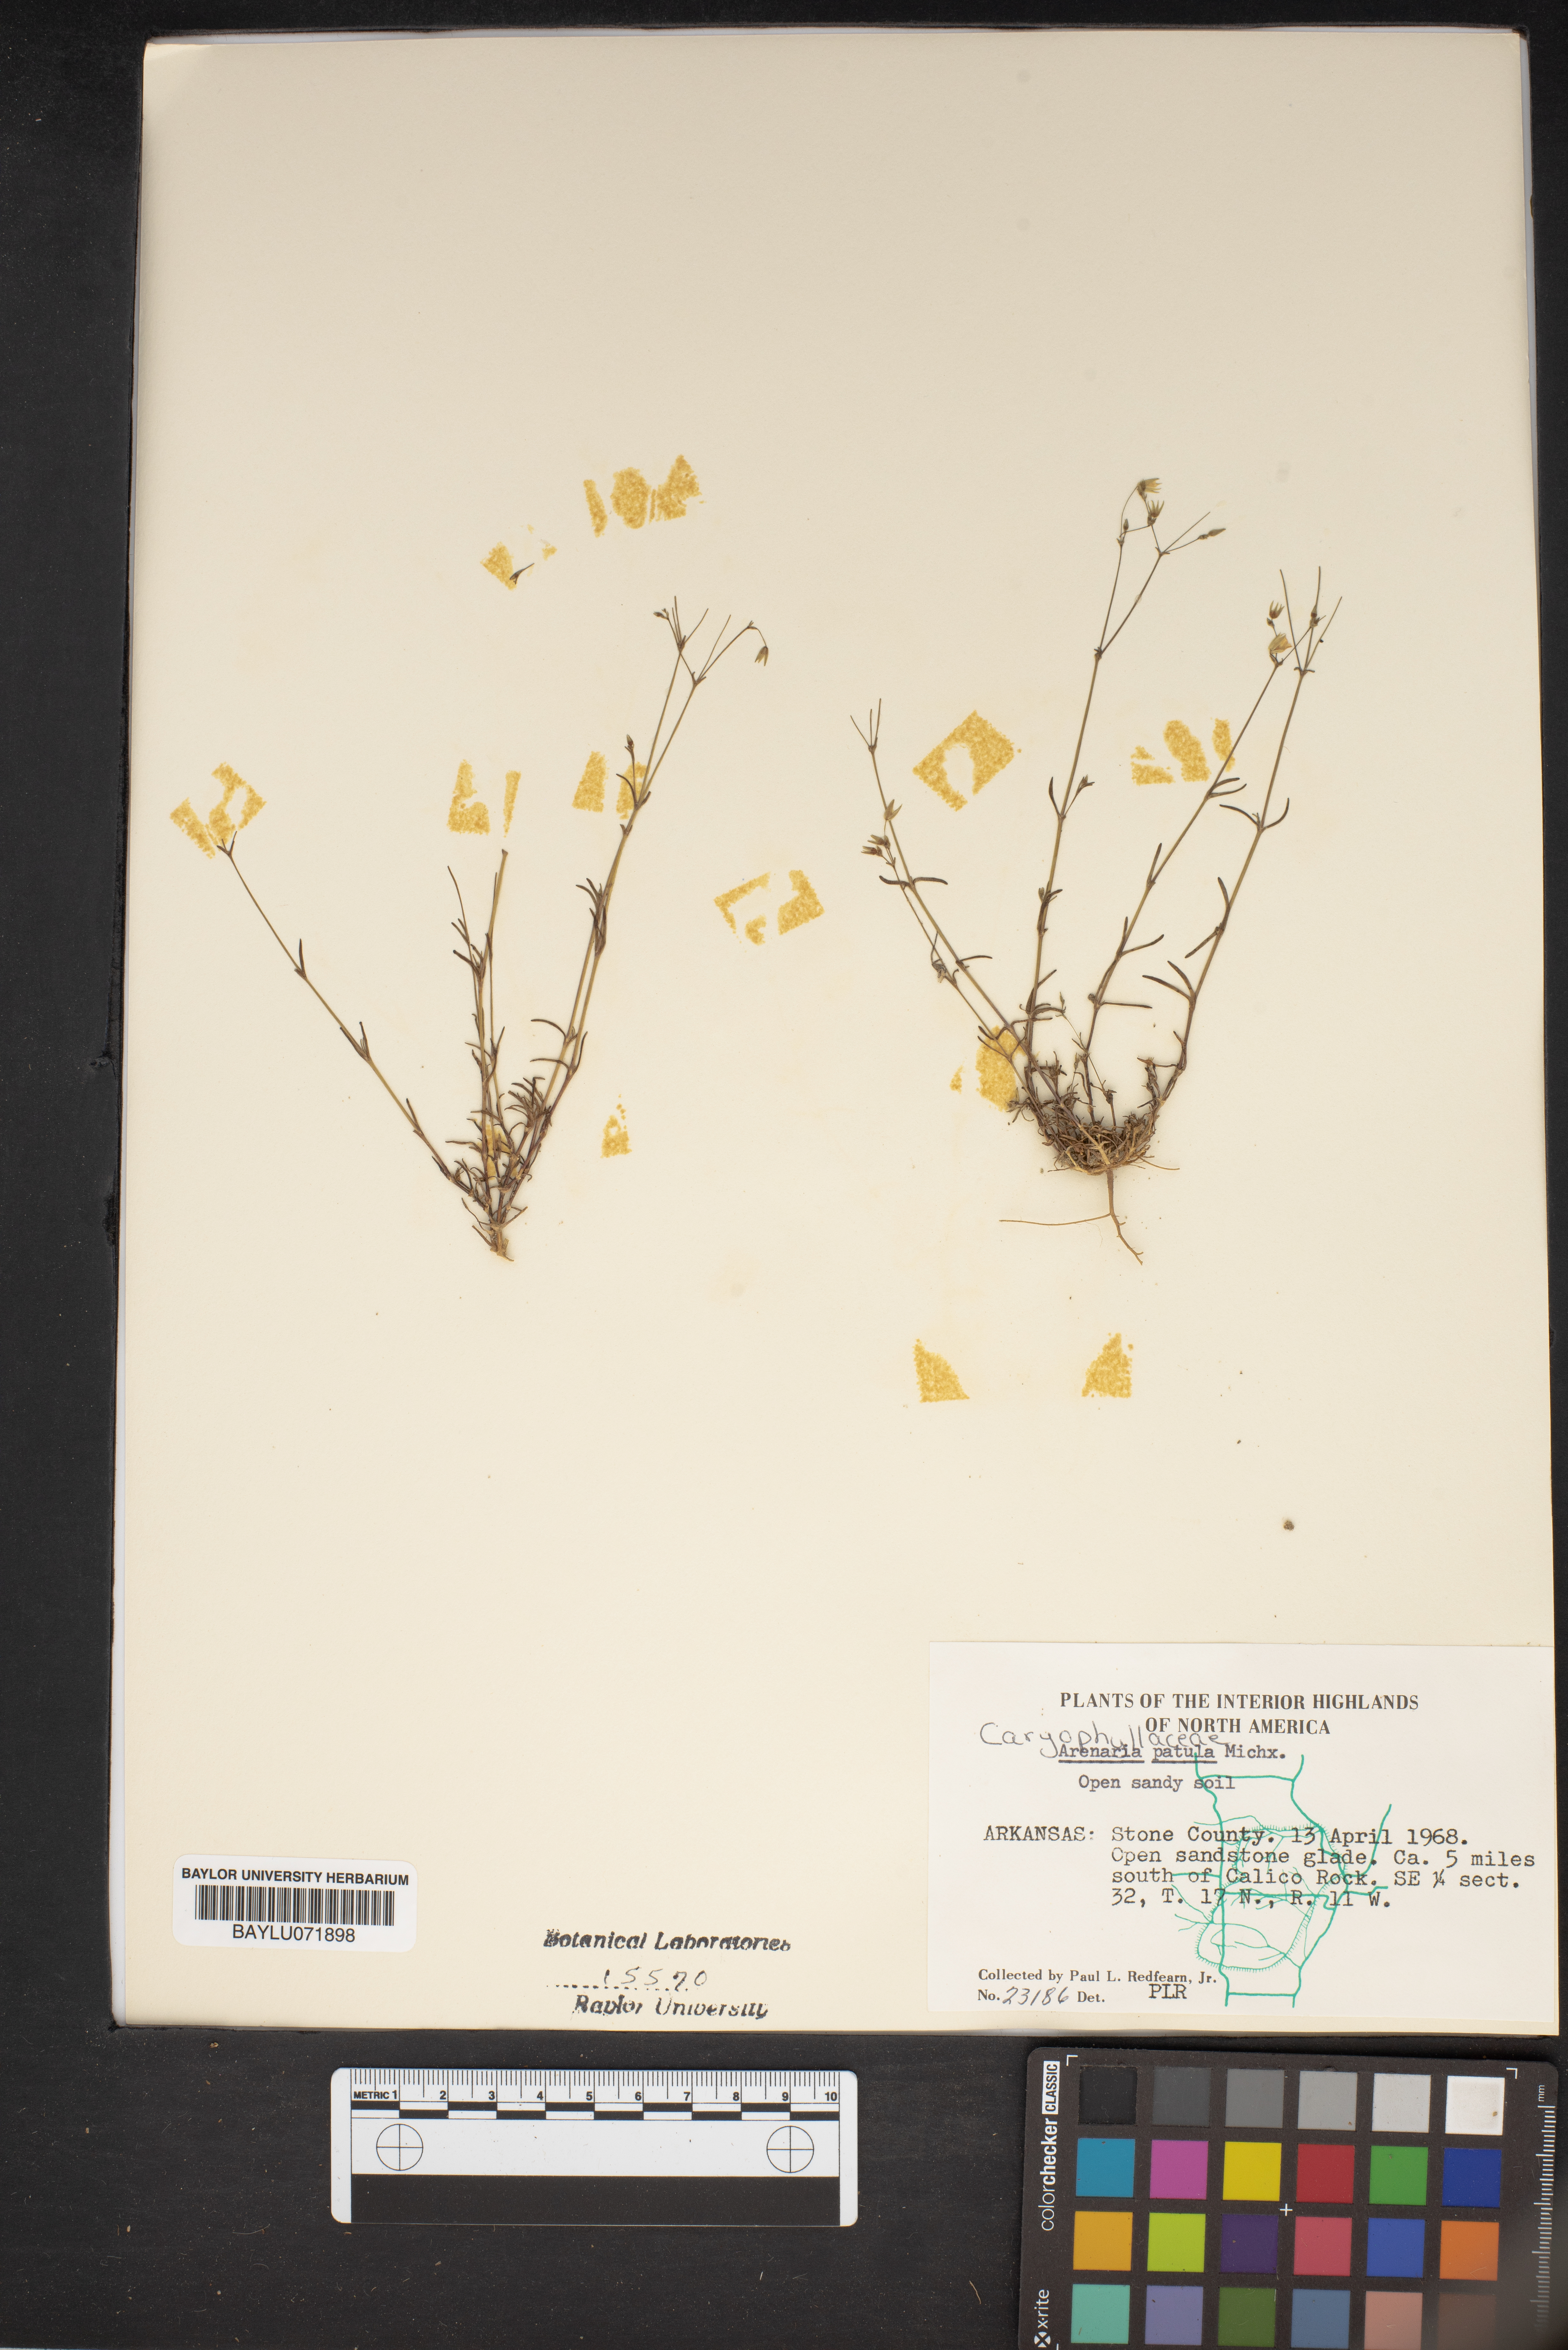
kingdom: Plantae
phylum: Tracheophyta
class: Magnoliopsida
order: Caryophyllales
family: Caryophyllaceae
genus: Mononeuria
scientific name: Mononeuria patula
